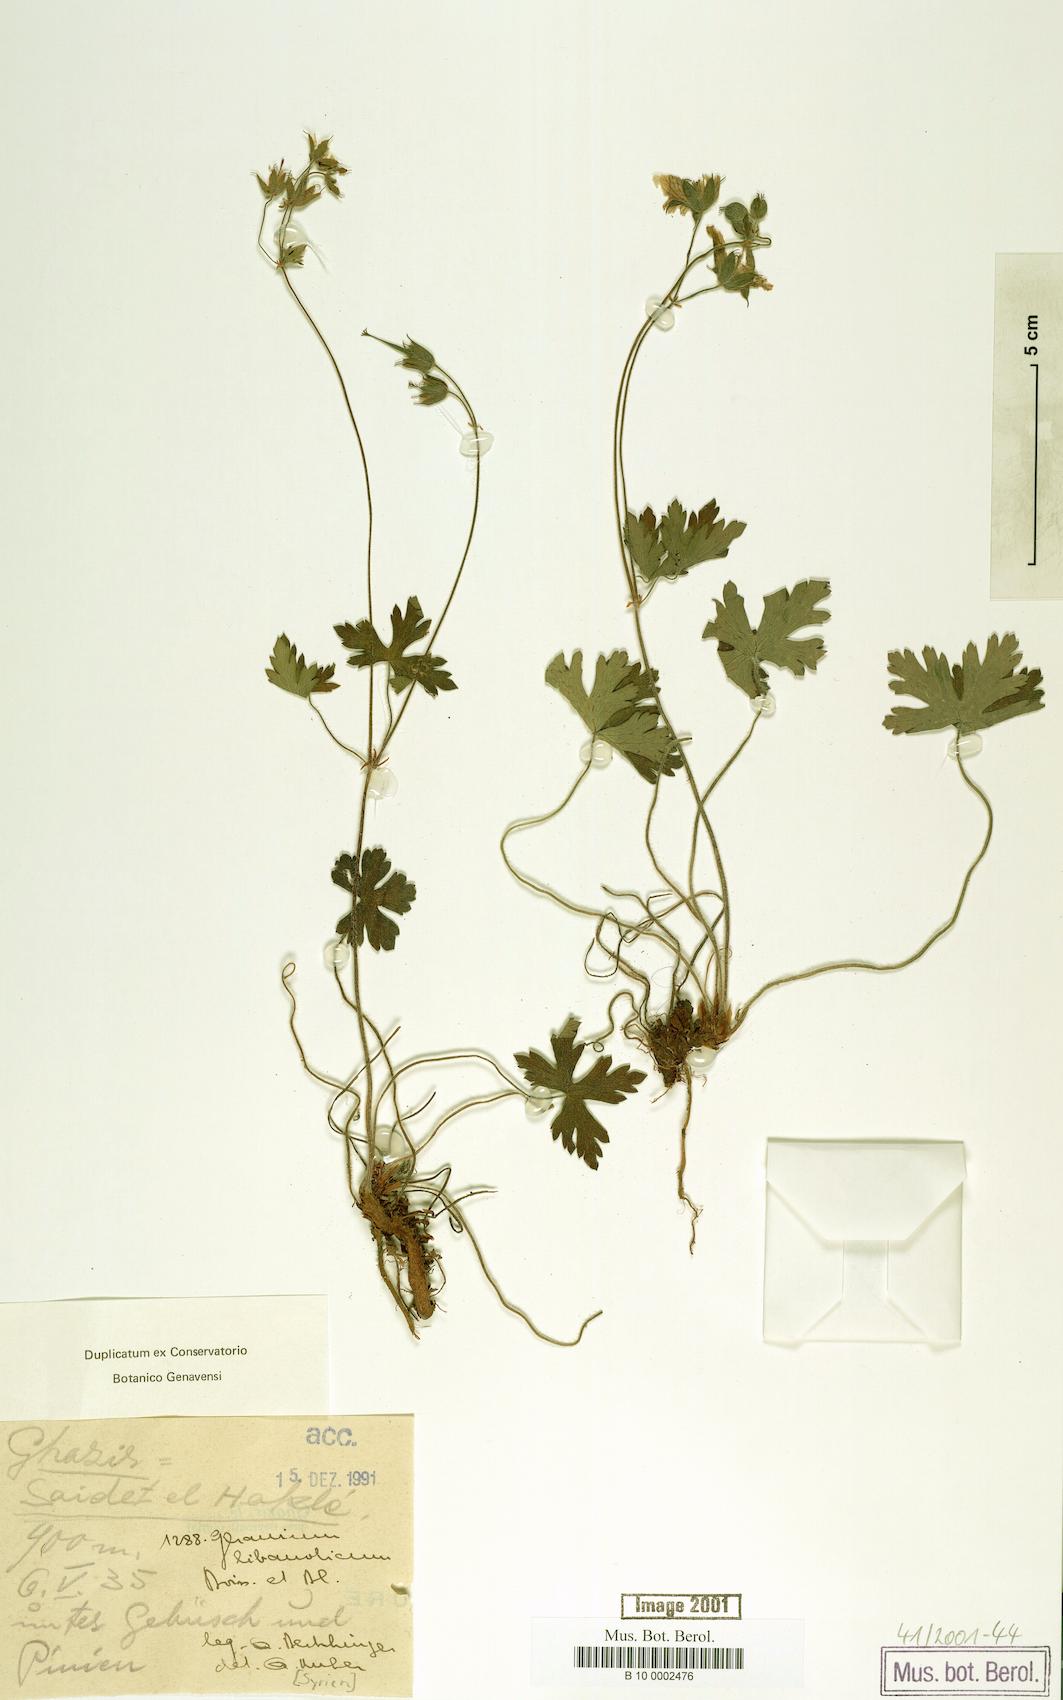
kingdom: Plantae
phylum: Tracheophyta
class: Magnoliopsida
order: Geraniales
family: Geraniaceae
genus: Geranium
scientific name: Geranium libanoticum
